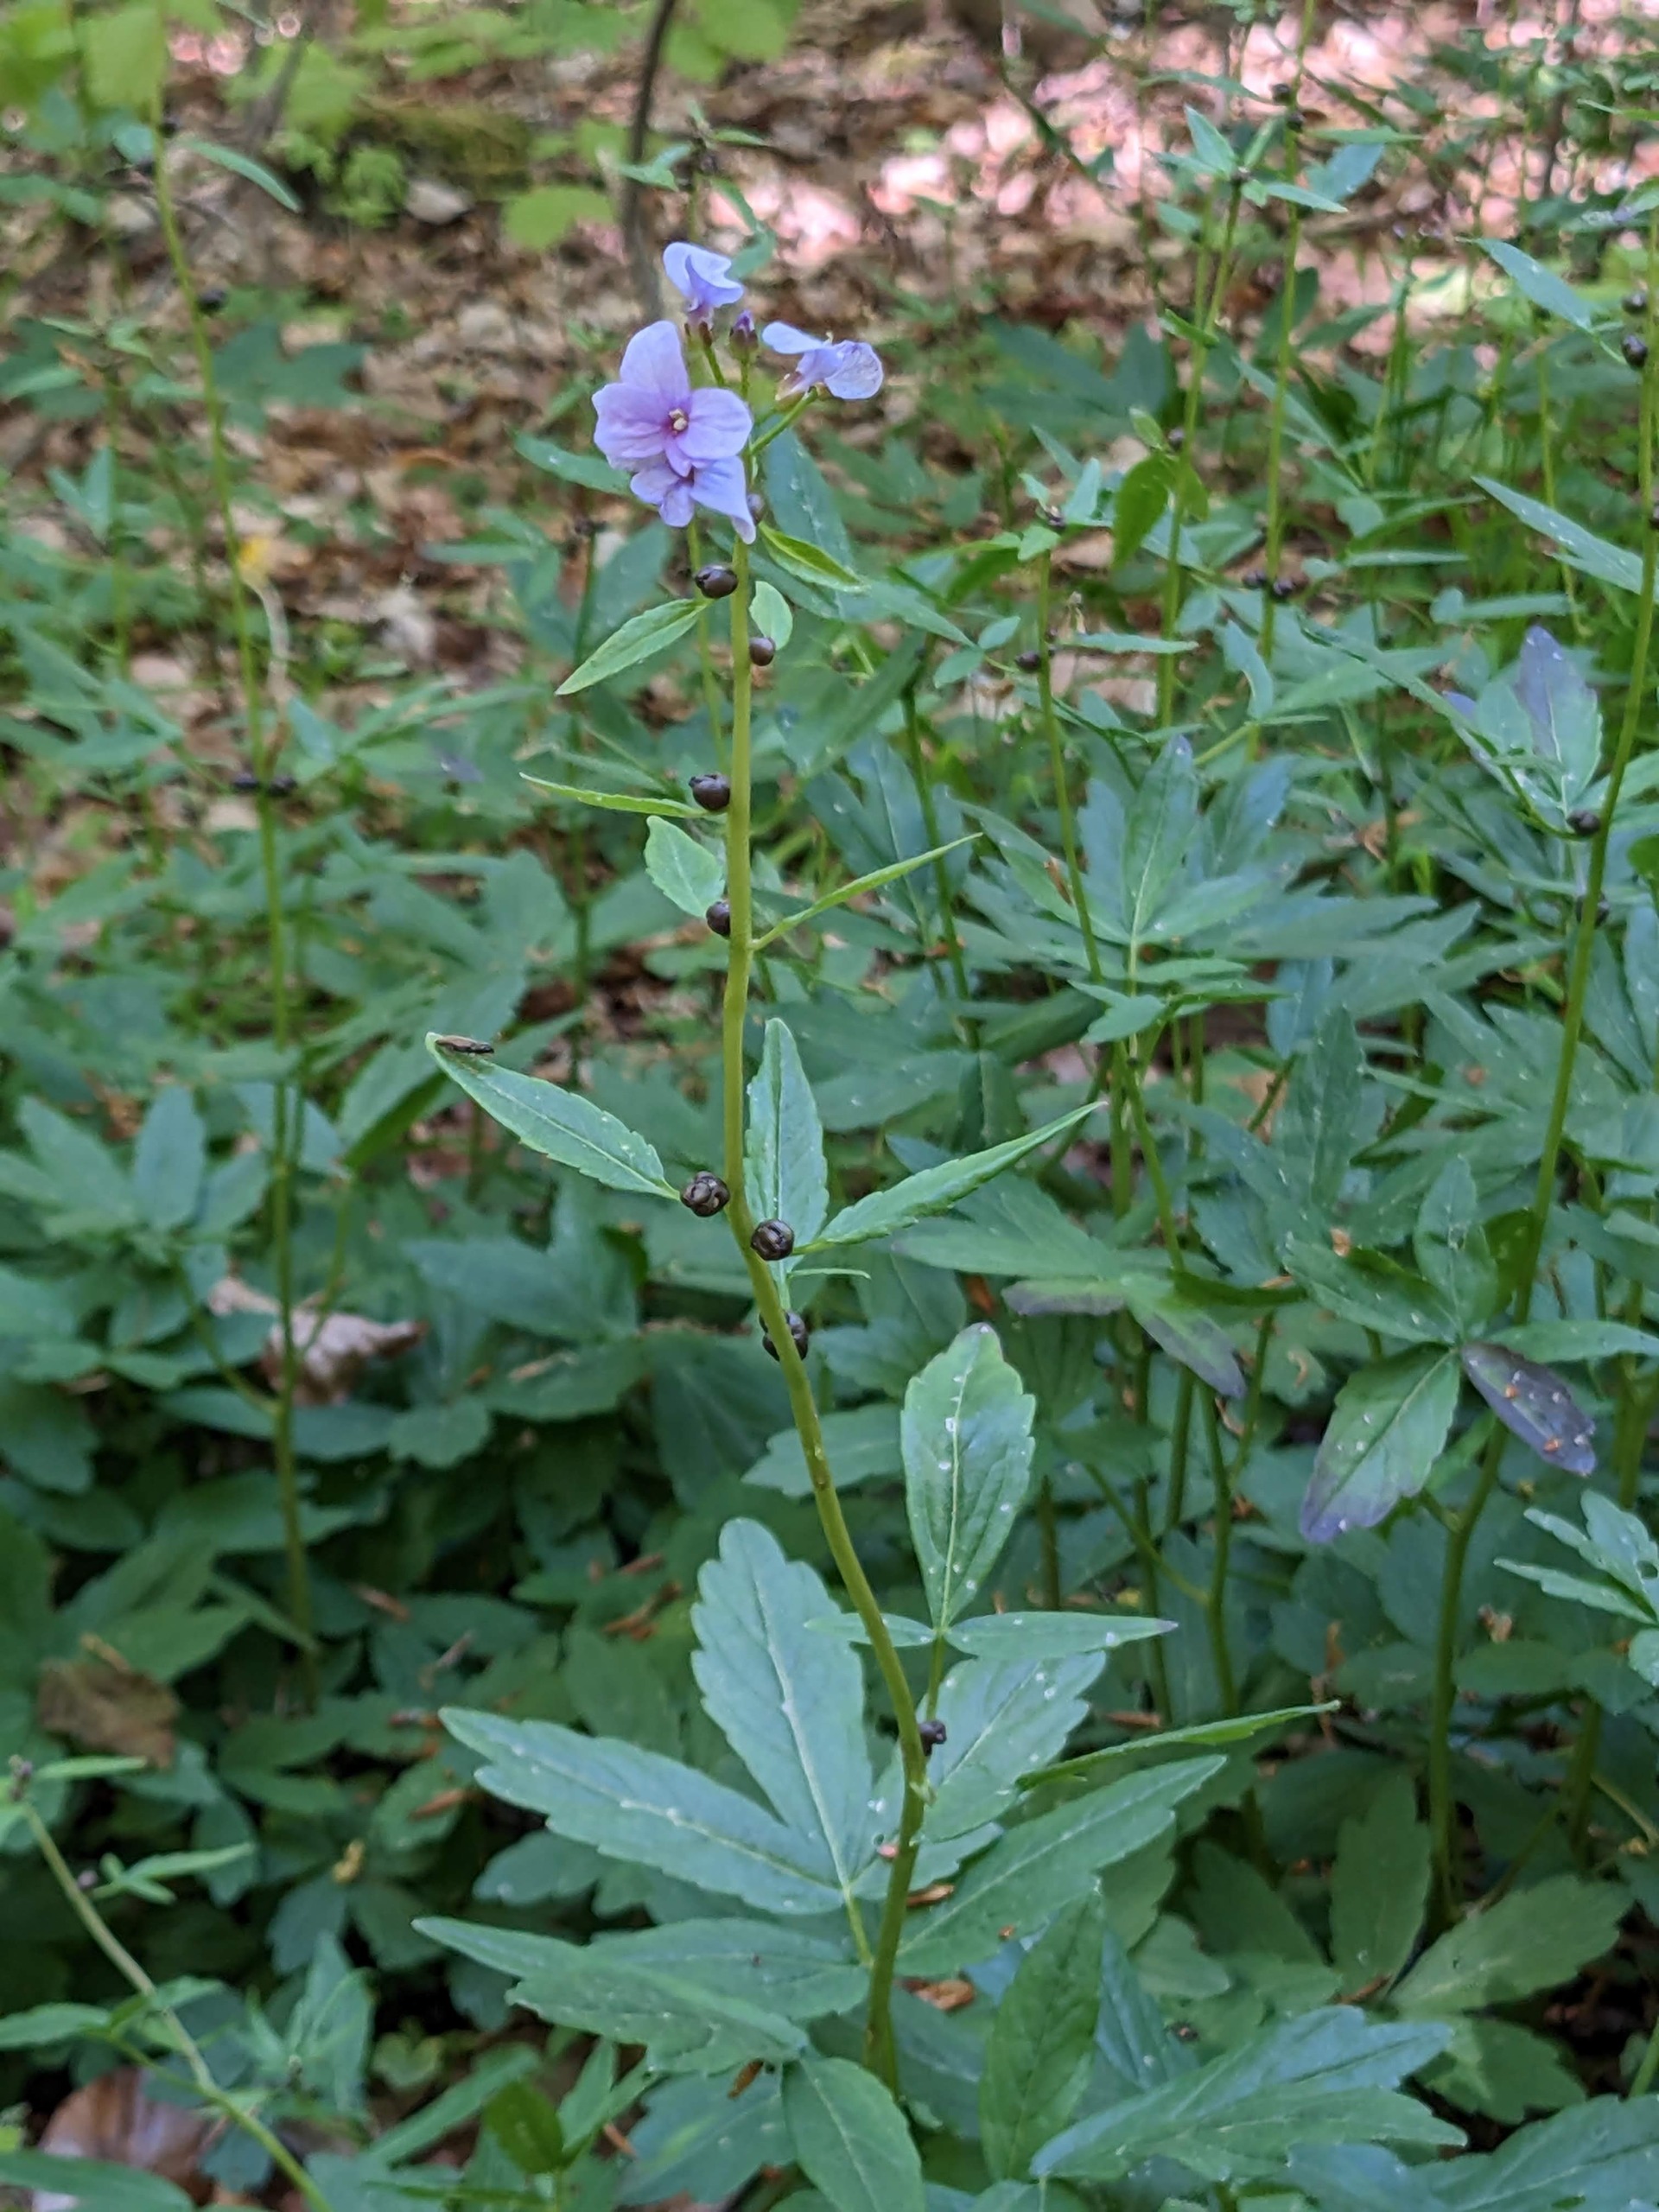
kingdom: Plantae
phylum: Tracheophyta
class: Magnoliopsida
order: Brassicales
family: Brassicaceae
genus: Cardamine
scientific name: Cardamine bulbifera
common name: Tandrod
